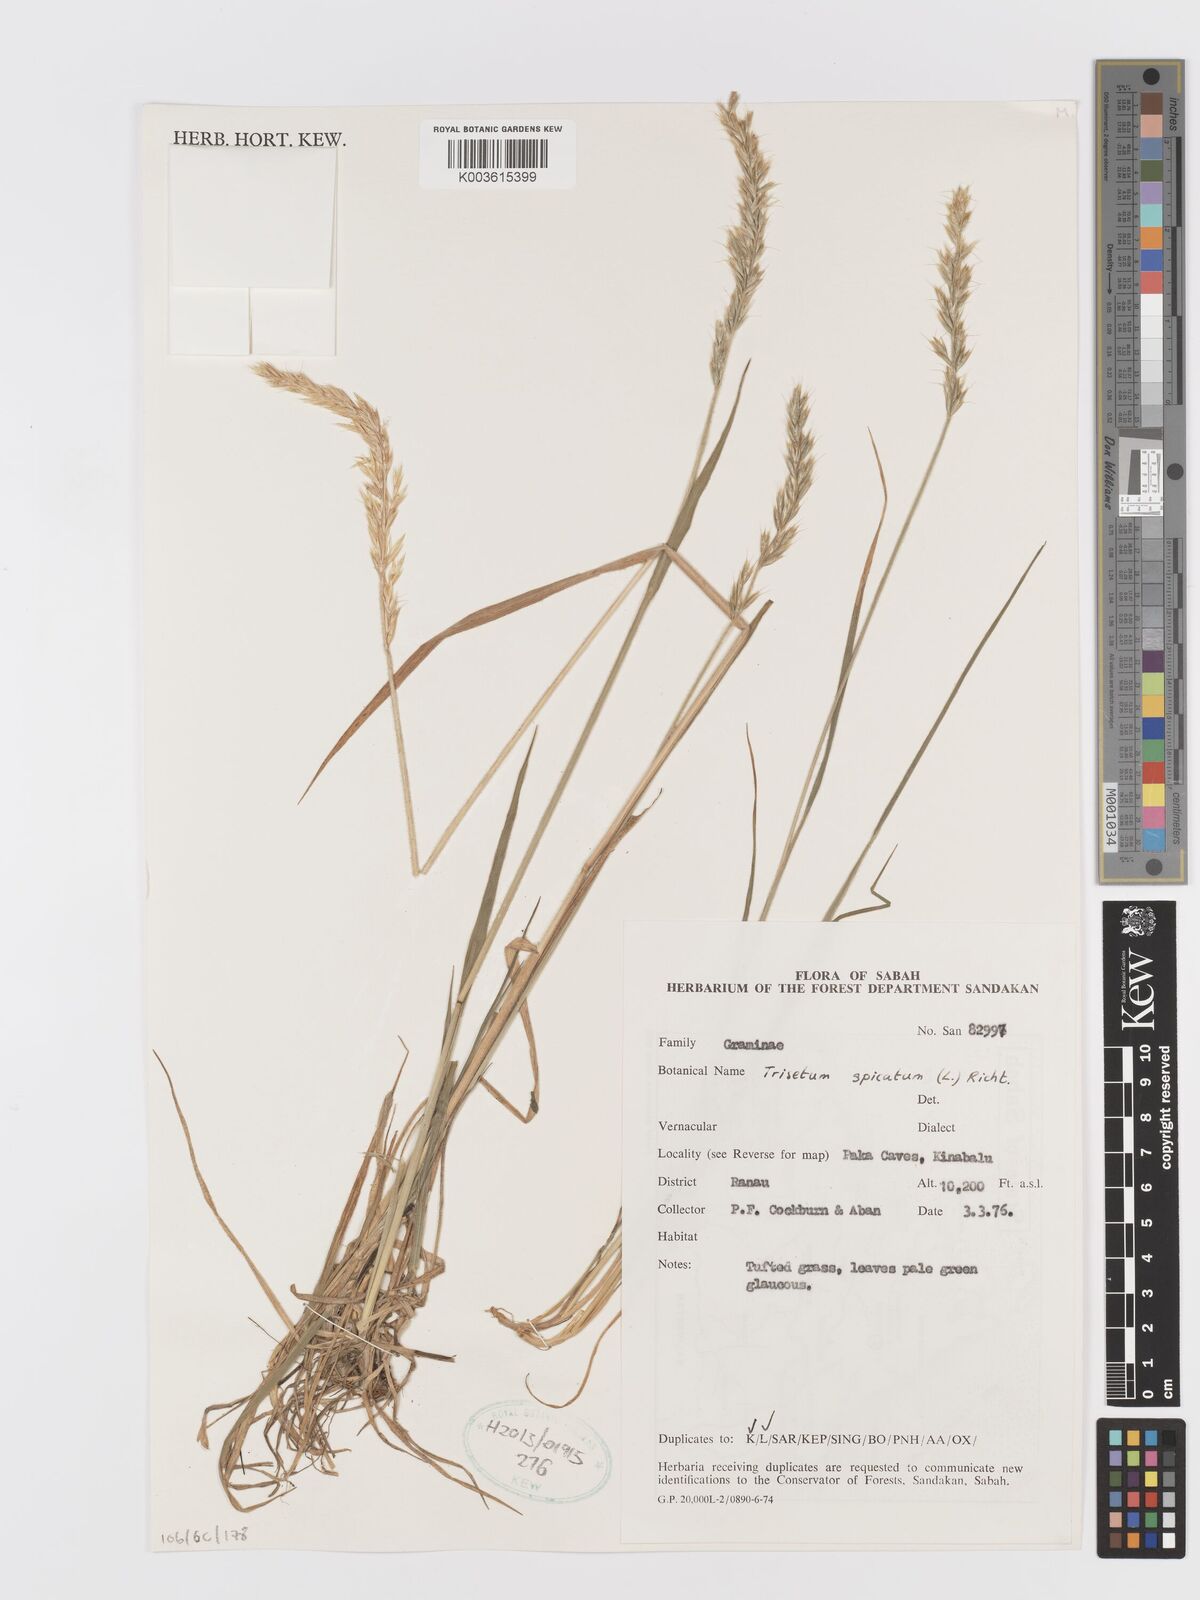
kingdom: Plantae
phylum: Tracheophyta
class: Liliopsida
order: Poales
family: Poaceae
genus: Koeleria
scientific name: Koeleria spicata
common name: Mountain trisetum
